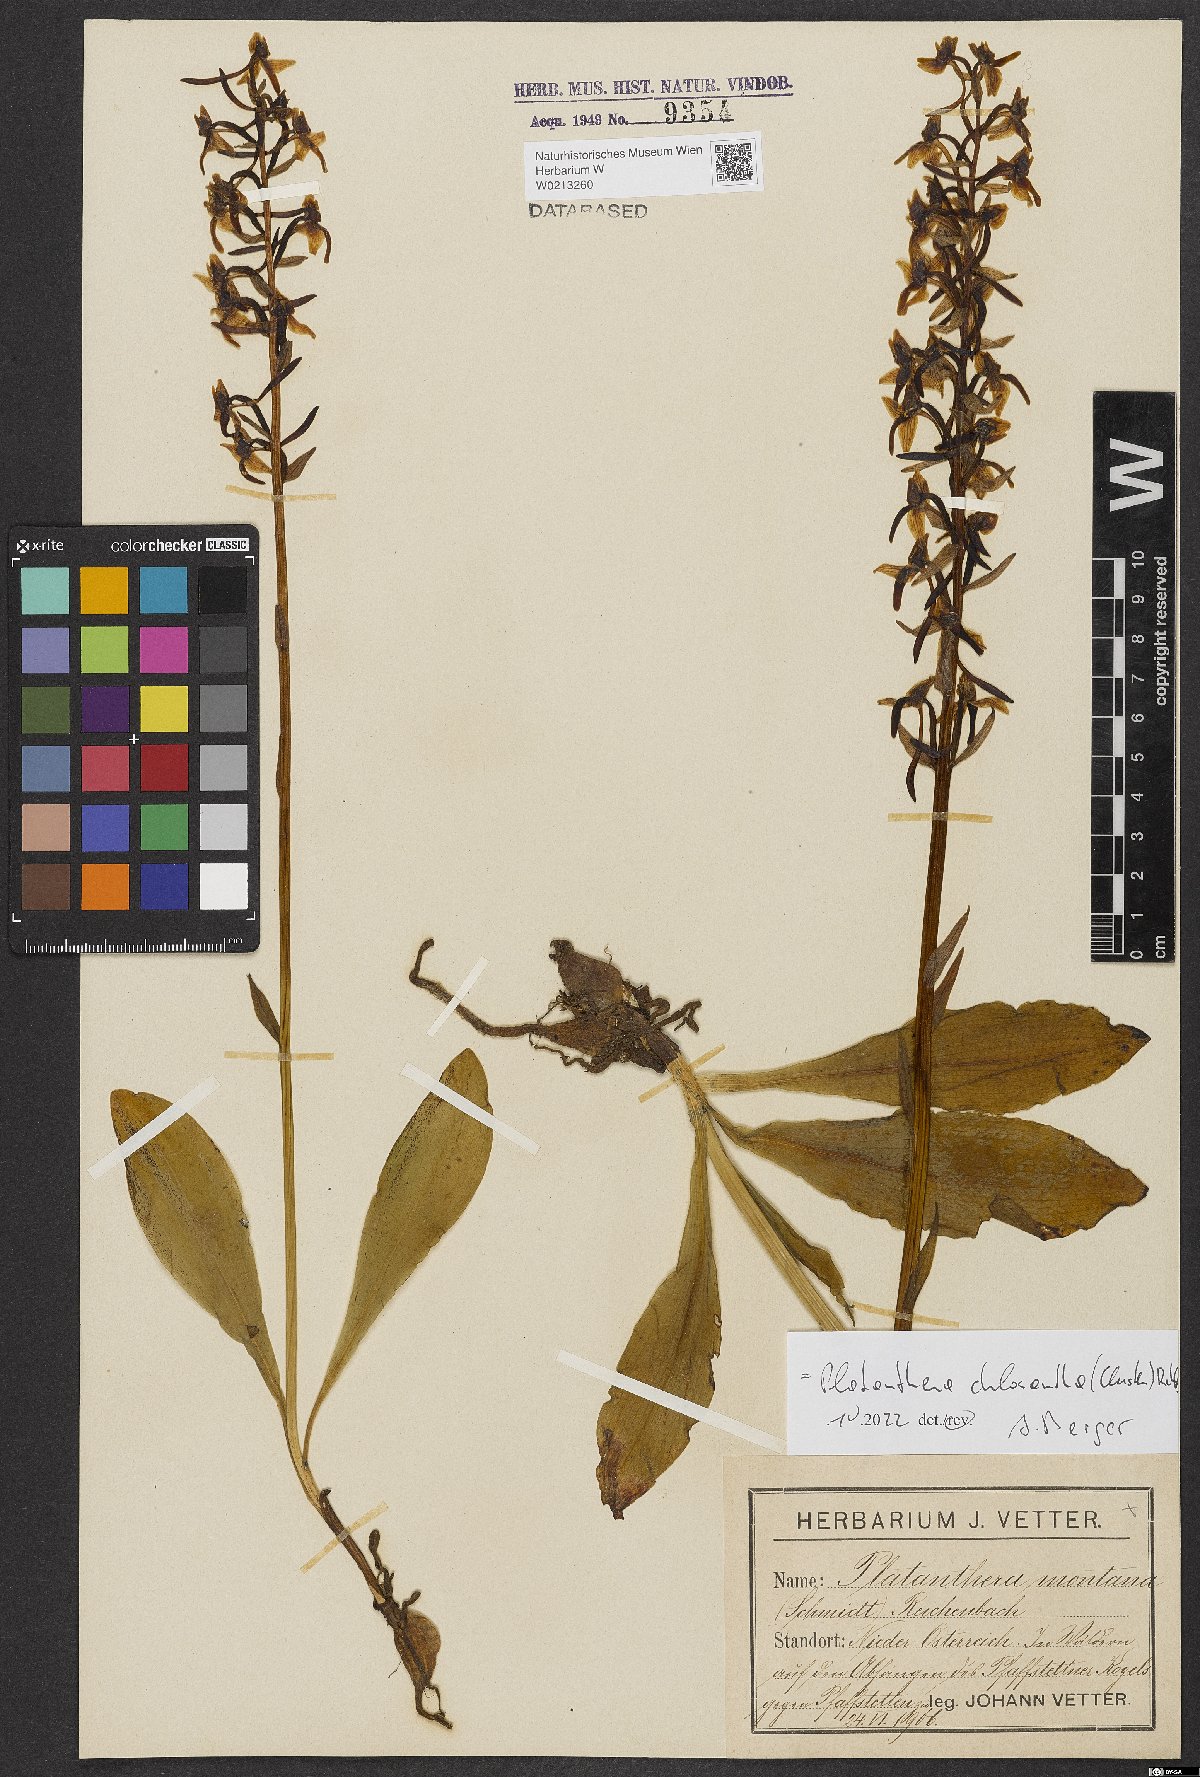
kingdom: Plantae
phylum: Tracheophyta
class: Liliopsida
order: Asparagales
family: Orchidaceae
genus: Platanthera
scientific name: Platanthera chlorantha
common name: Greater butterfly-orchid
